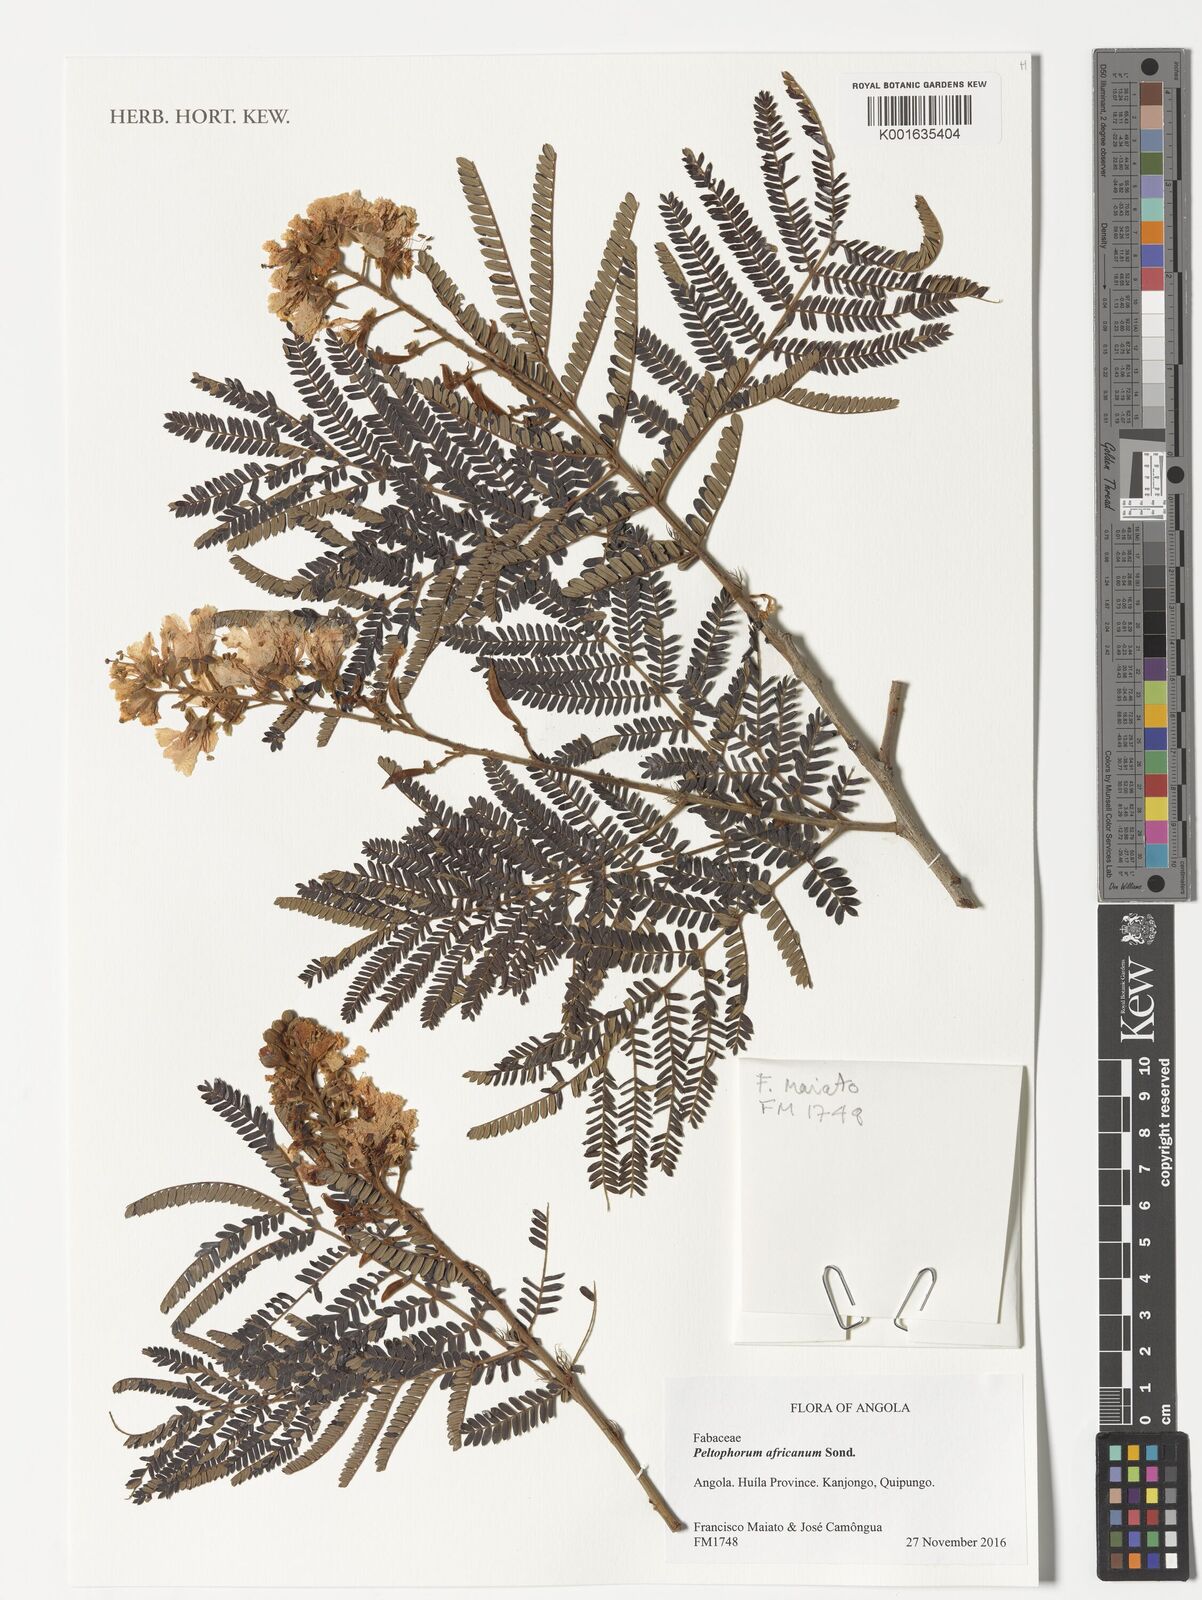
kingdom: Plantae
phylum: Tracheophyta
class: Magnoliopsida
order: Fabales
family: Fabaceae
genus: Peltophorum
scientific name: Peltophorum africanum
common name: African black wattle
